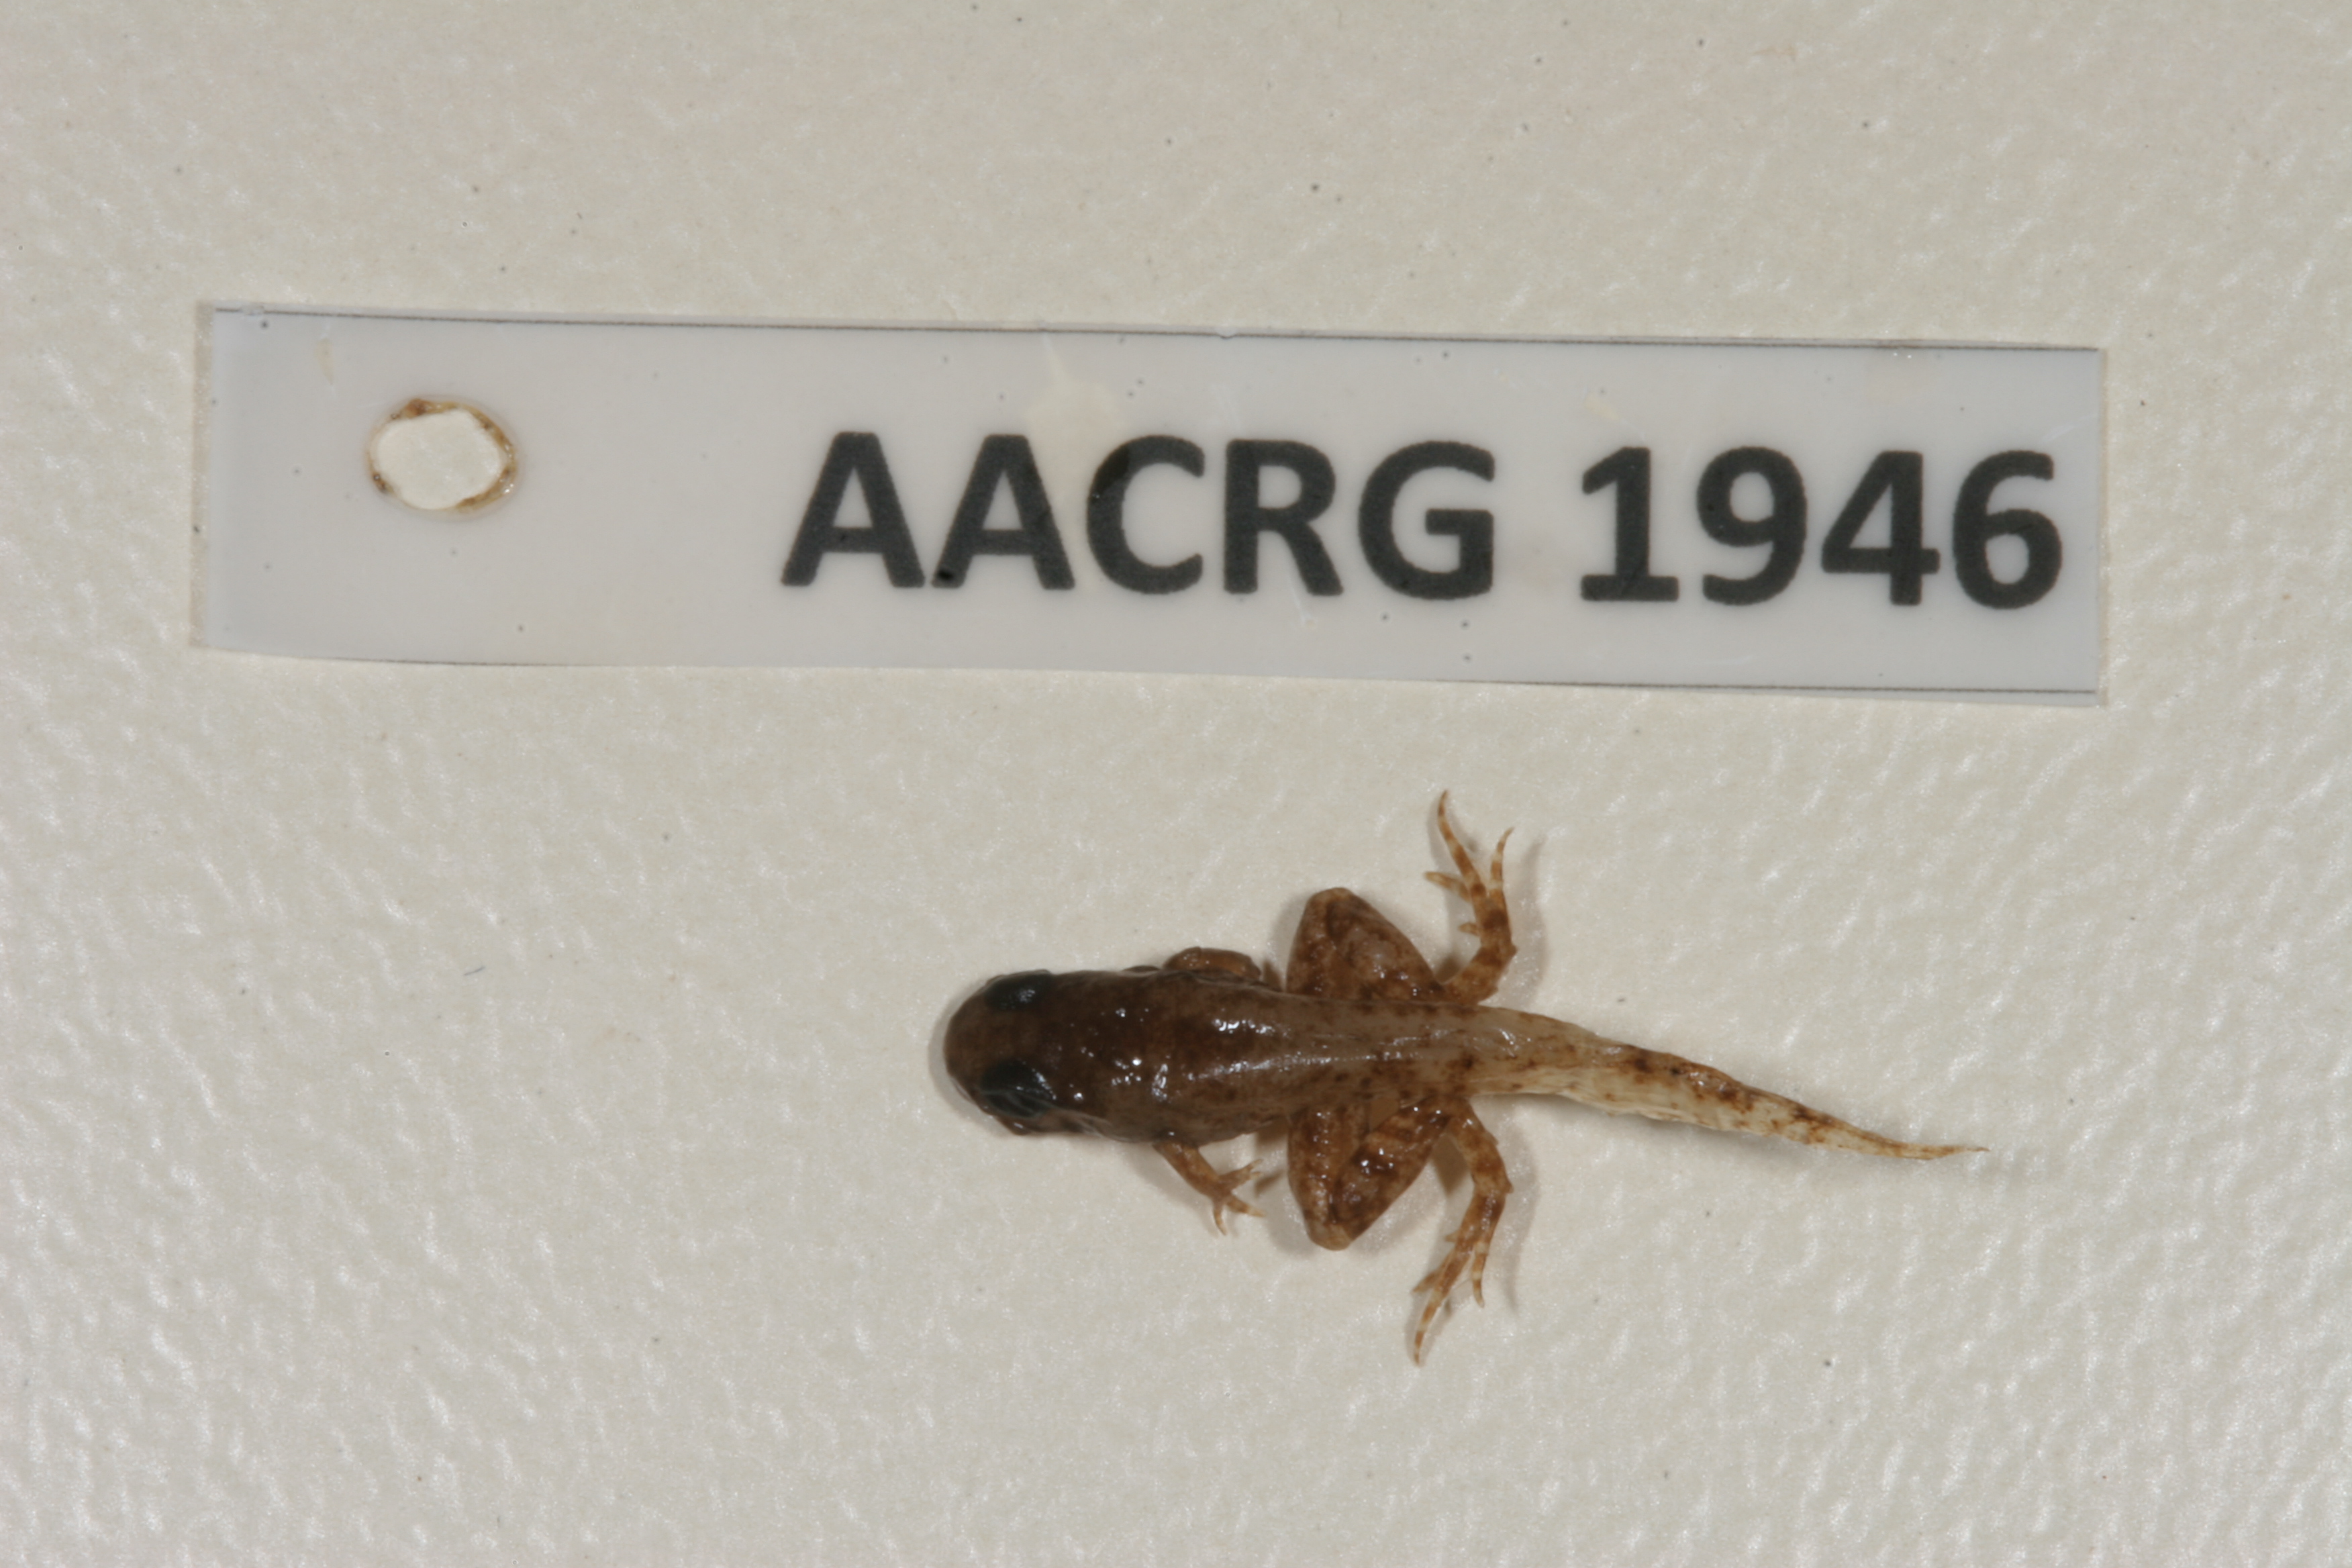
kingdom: Animalia
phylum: Chordata
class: Amphibia
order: Anura
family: Ptychadenidae
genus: Ptychadena
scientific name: Ptychadena anchietae
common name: Anchieta's ridged frog
